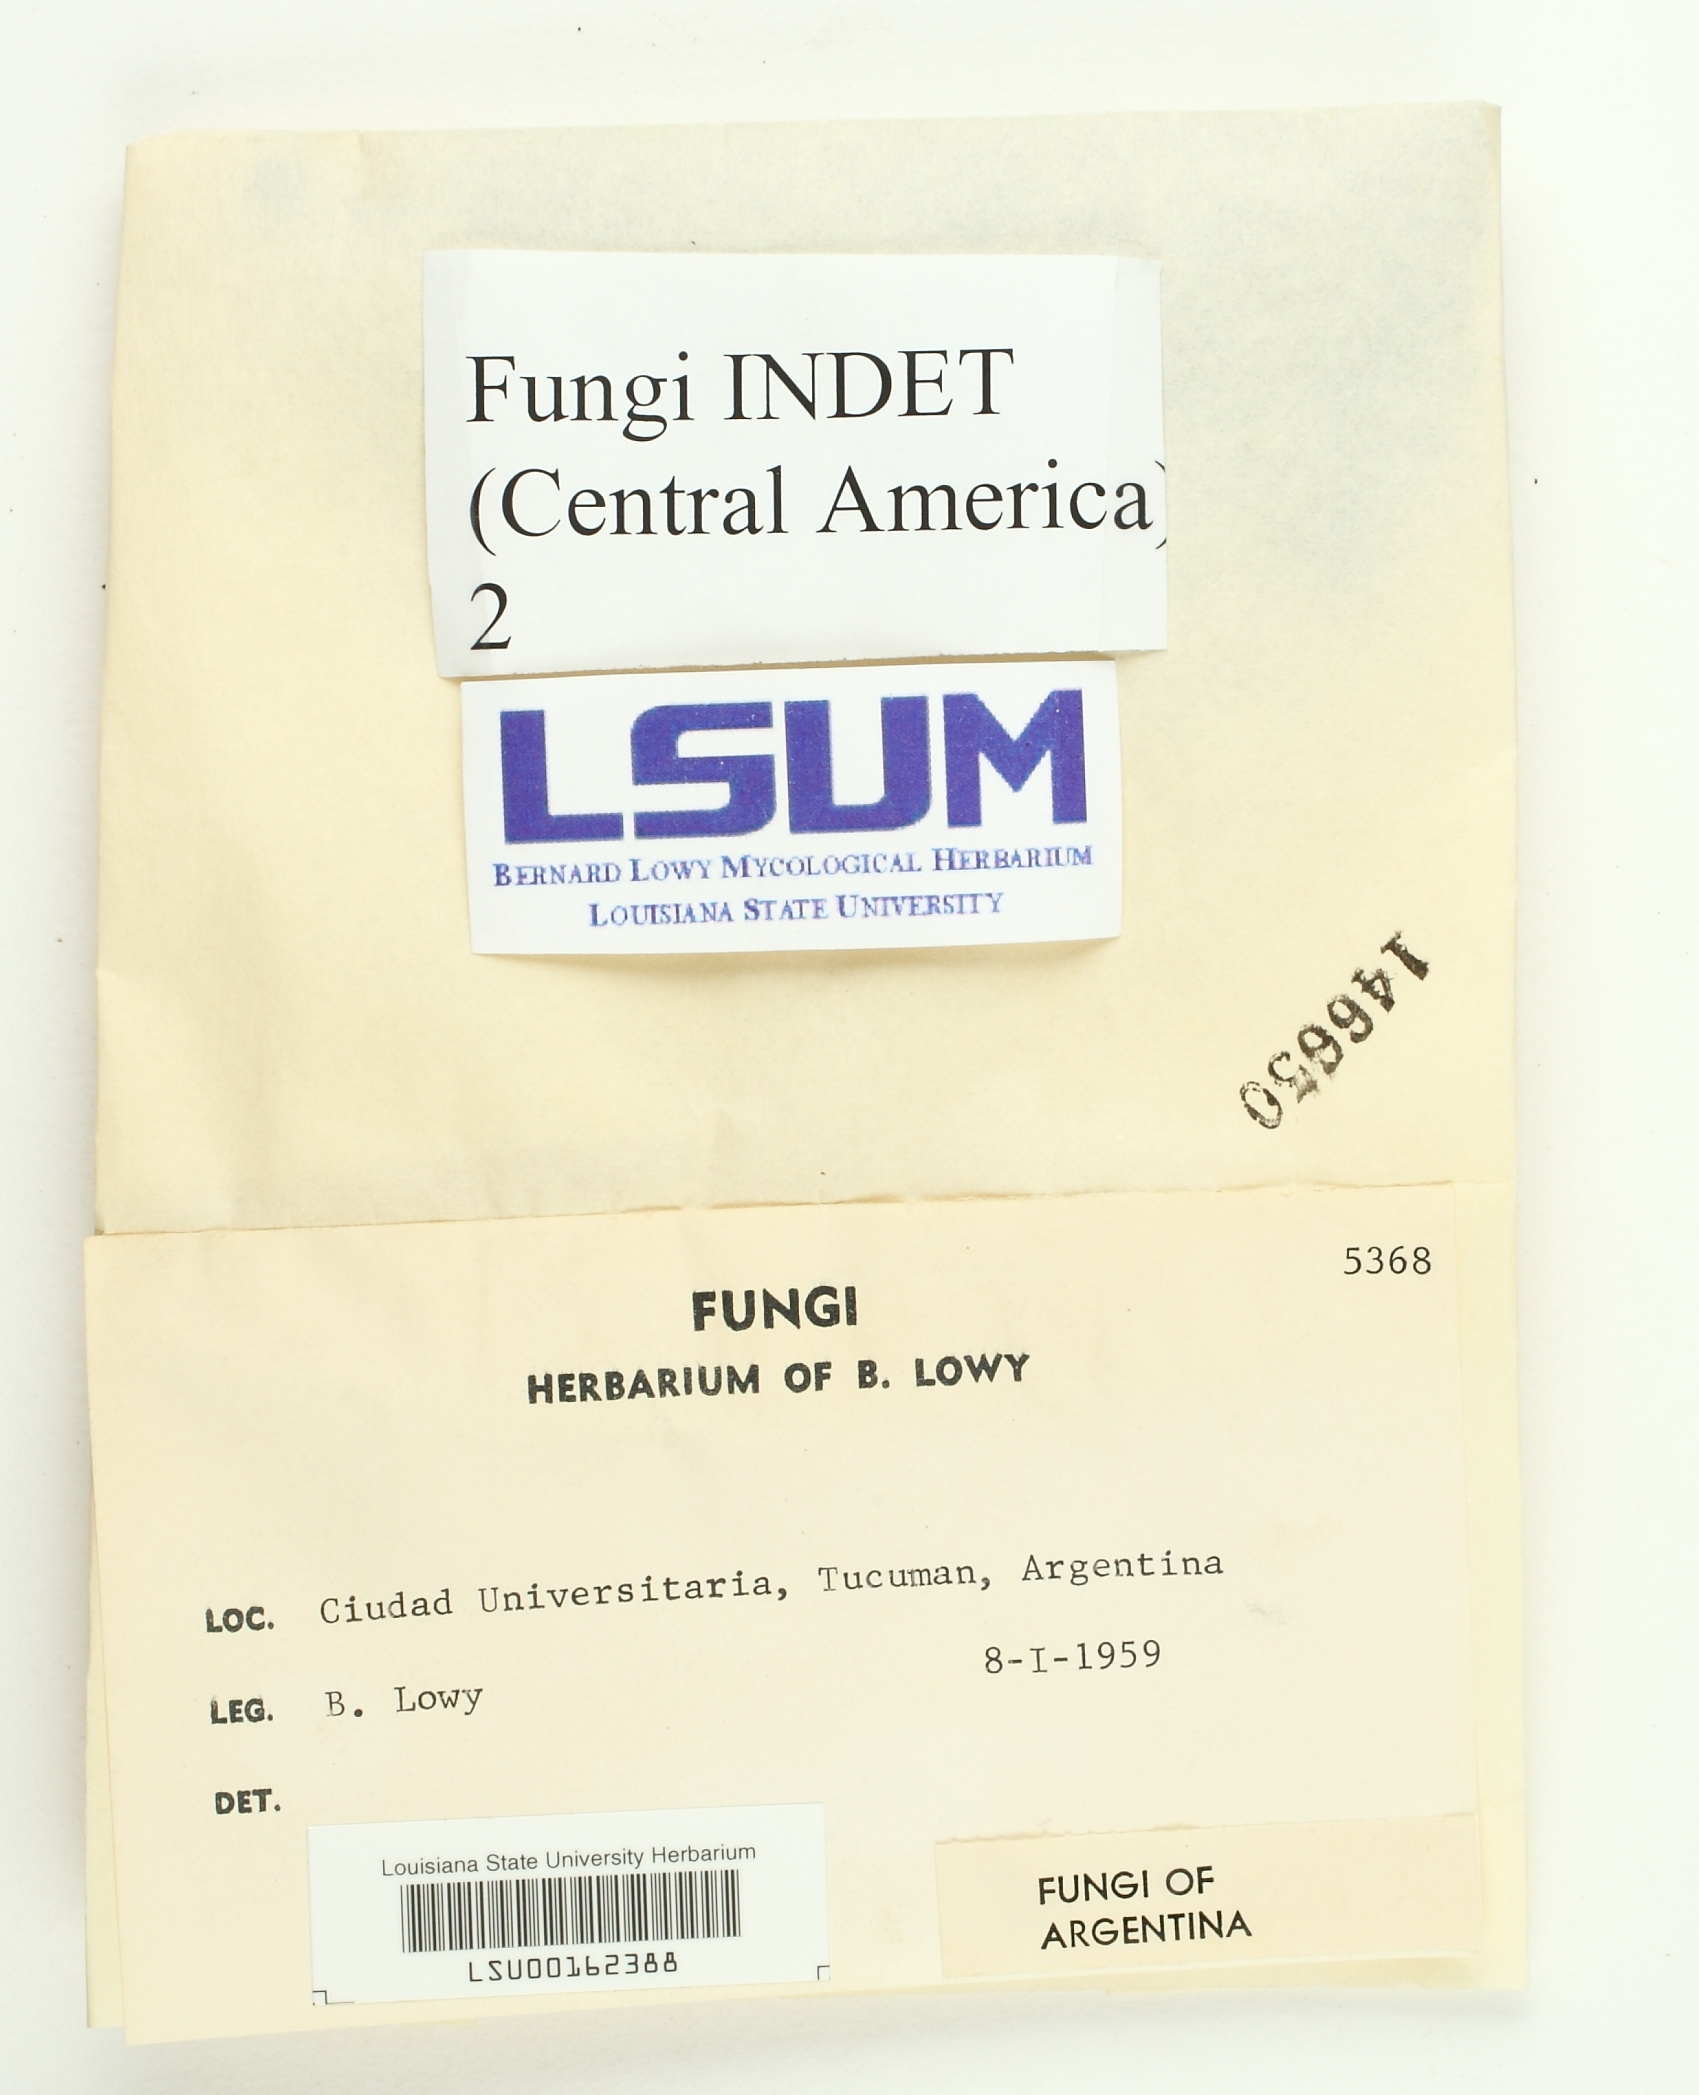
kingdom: Fungi
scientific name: Fungi
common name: Fungi
